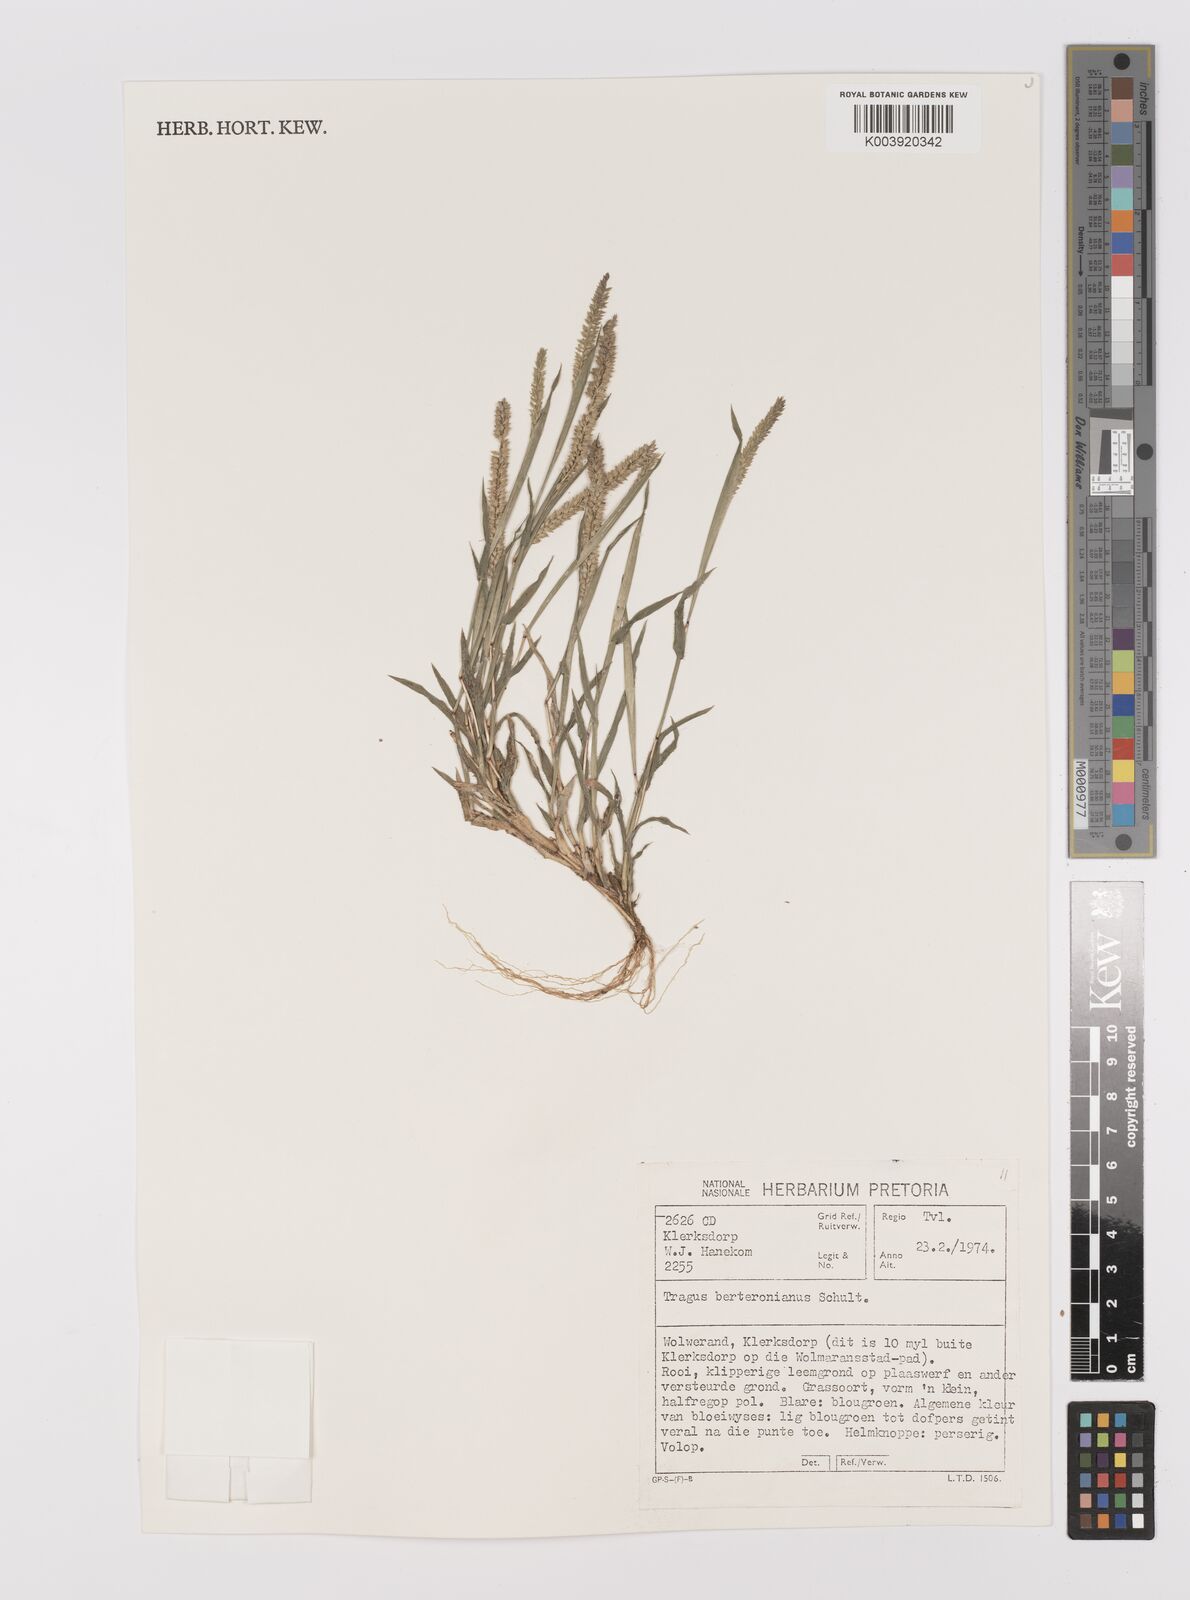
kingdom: Plantae
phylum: Tracheophyta
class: Liliopsida
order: Poales
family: Poaceae
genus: Tragus
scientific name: Tragus berteronianus
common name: African bur-grass
